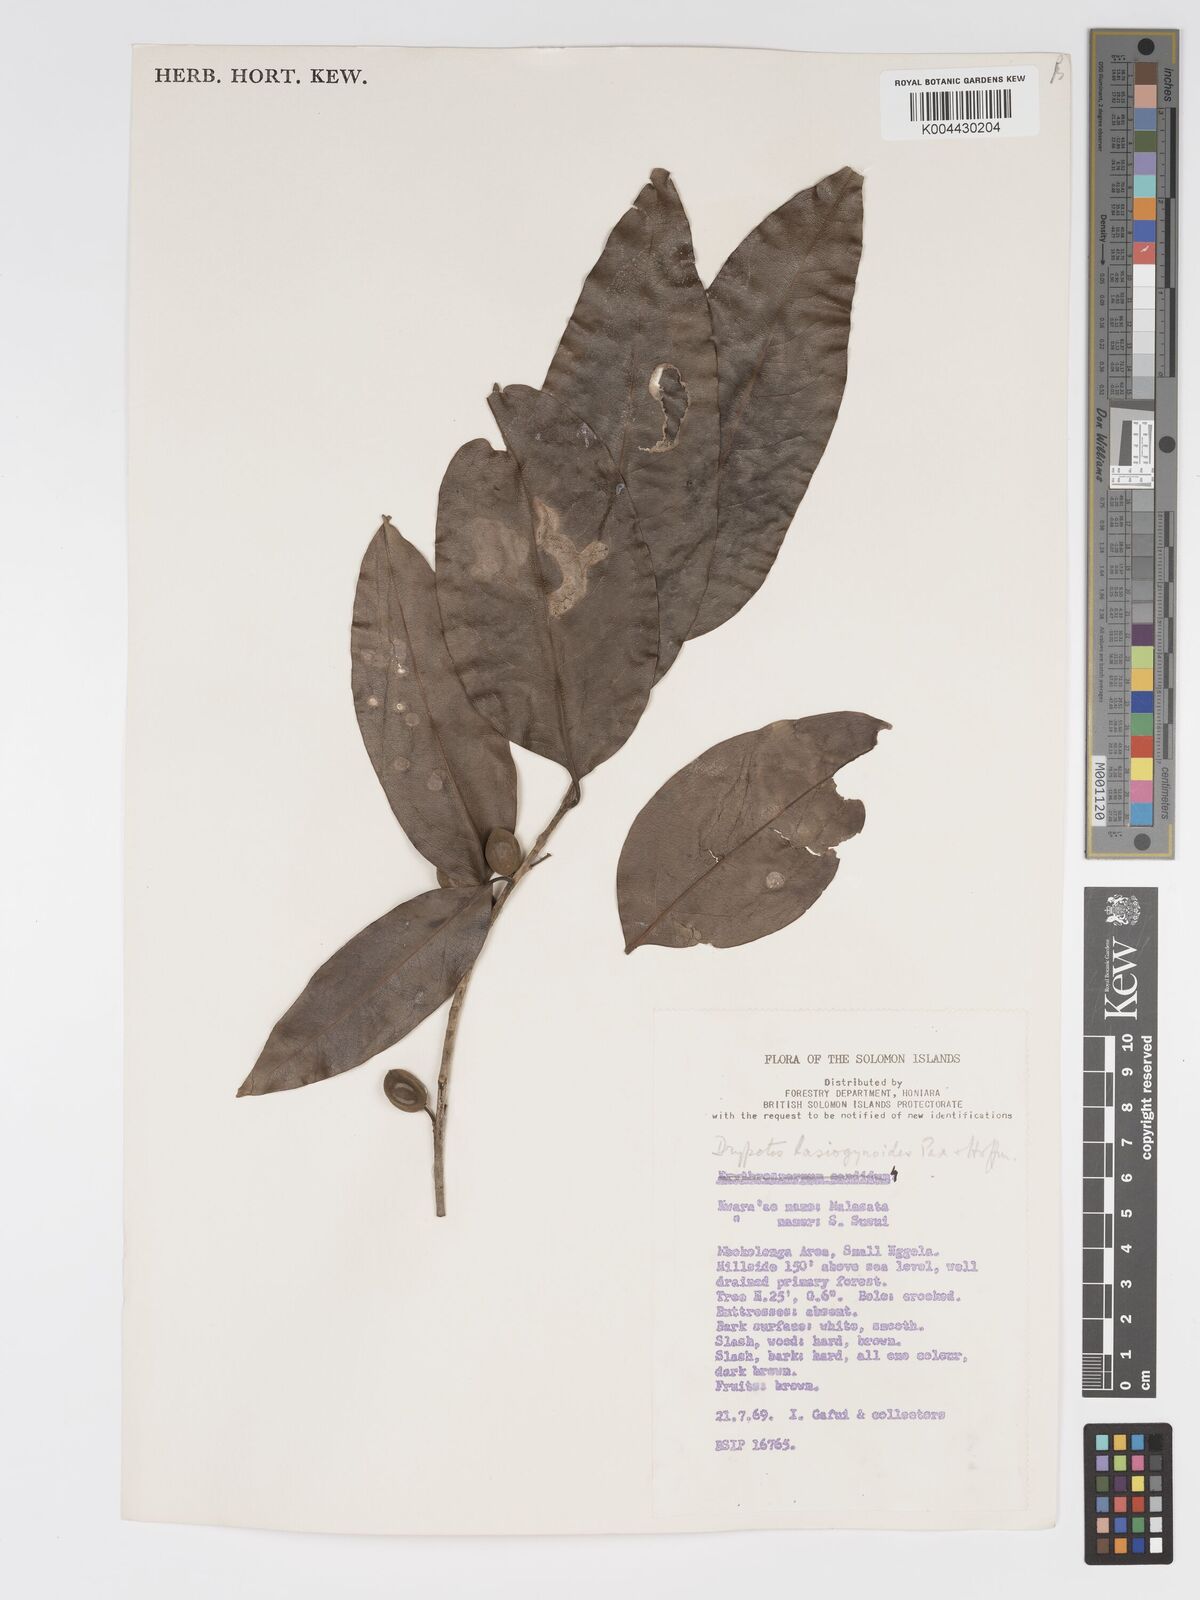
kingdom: Plantae
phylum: Tracheophyta
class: Magnoliopsida
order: Malpighiales
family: Putranjivaceae
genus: Drypetes
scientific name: Drypetes lasiogynoides
